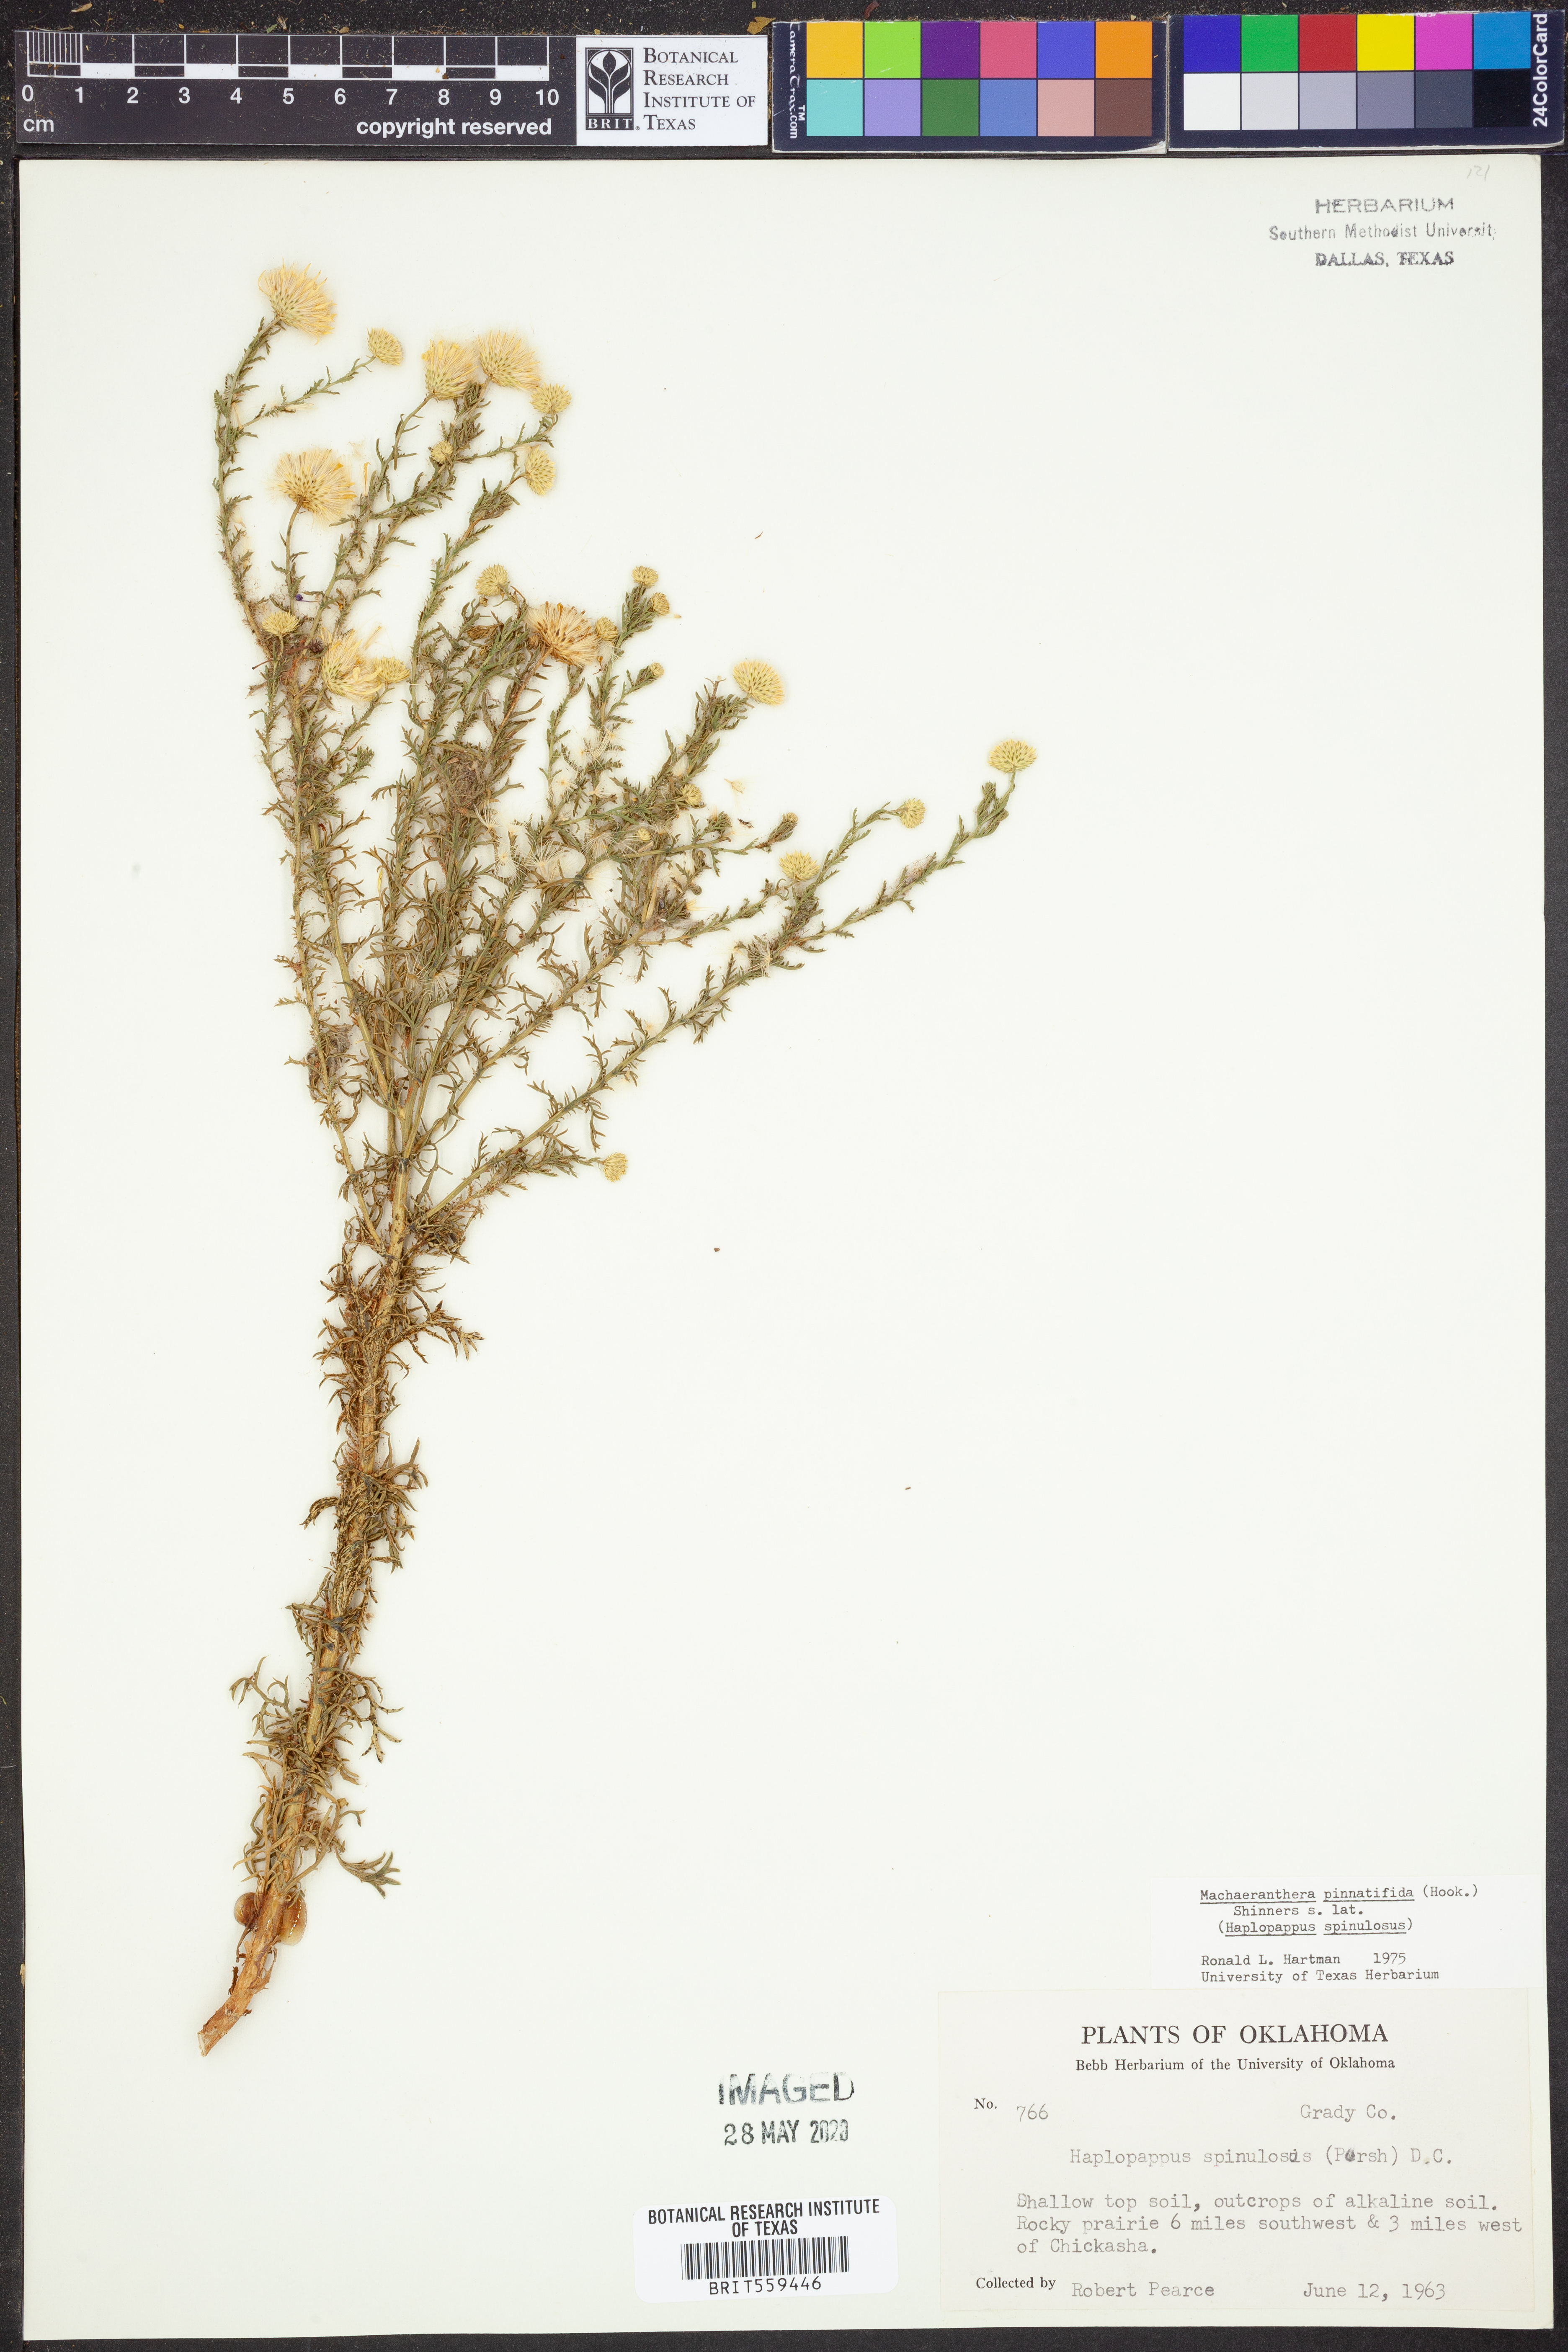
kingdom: Plantae
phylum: Tracheophyta
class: Magnoliopsida
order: Asterales
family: Asteraceae
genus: Xanthisma
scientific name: Xanthisma spinulosum
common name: Spiny goldenweed
